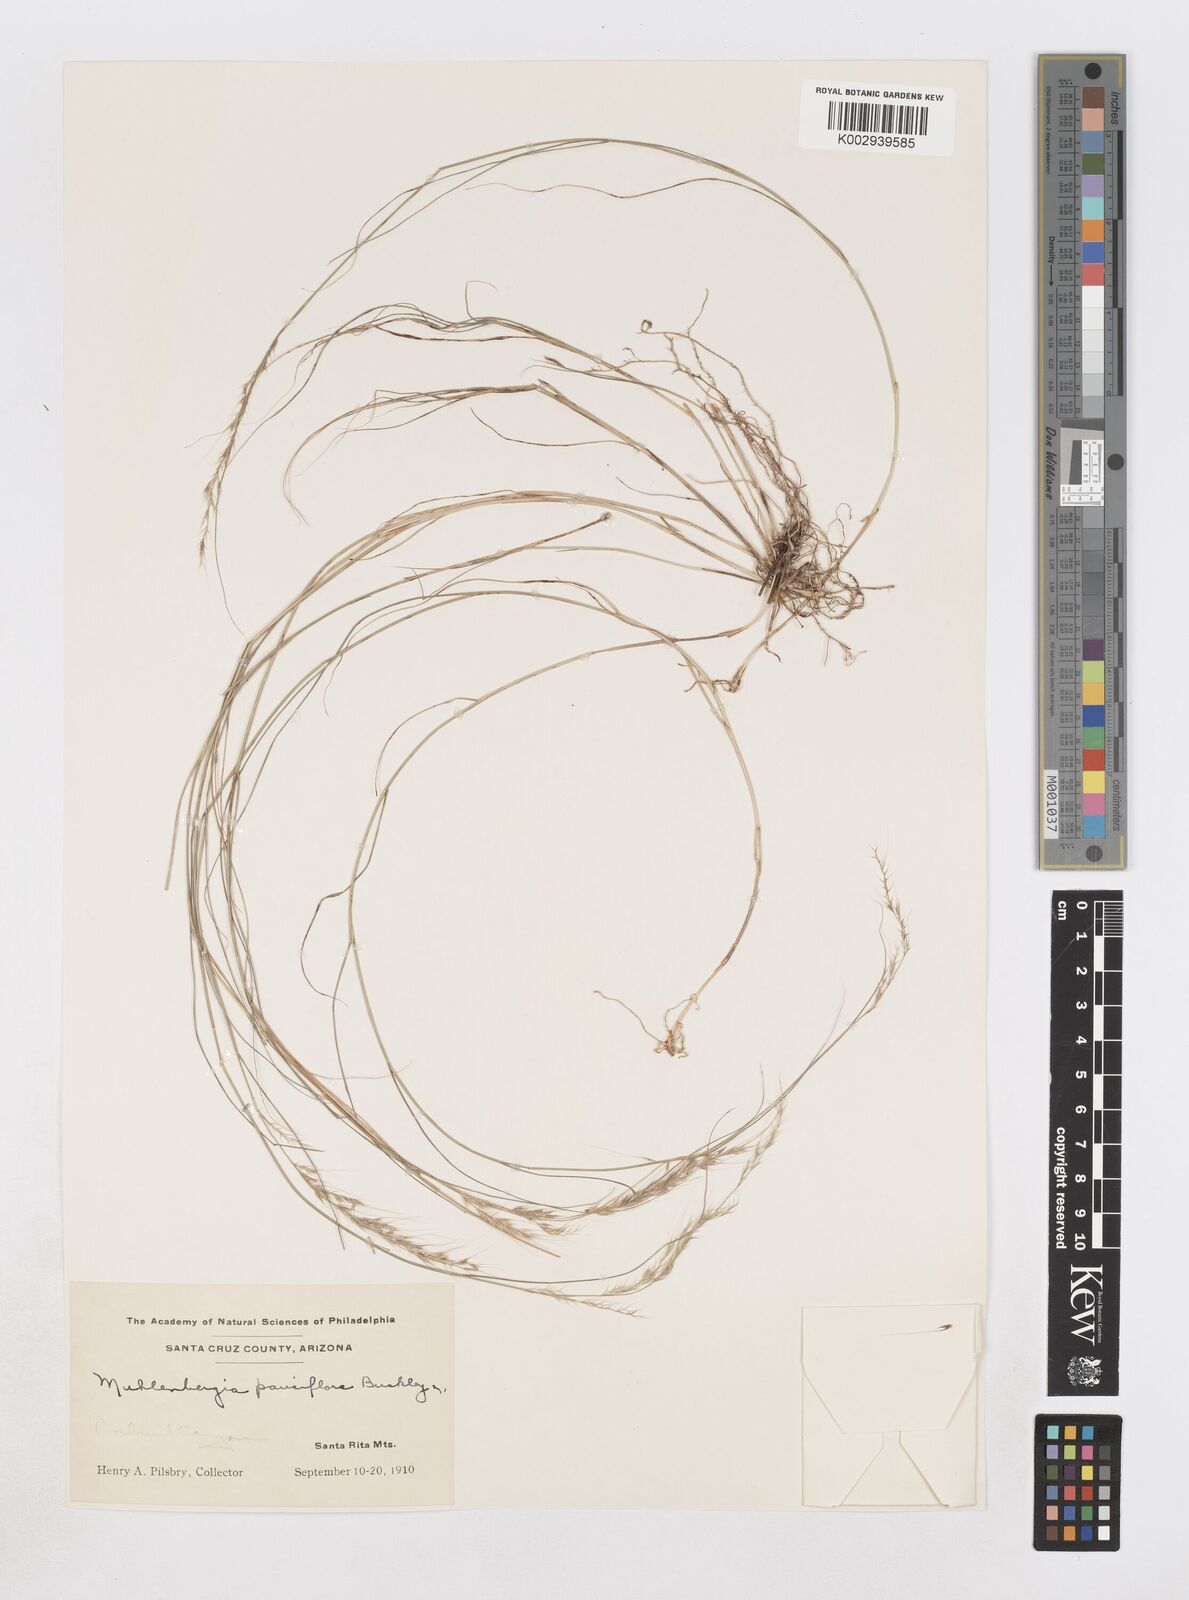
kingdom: Plantae
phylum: Tracheophyta
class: Liliopsida
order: Poales
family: Poaceae
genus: Muhlenbergia
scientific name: Muhlenbergia pauciflora
